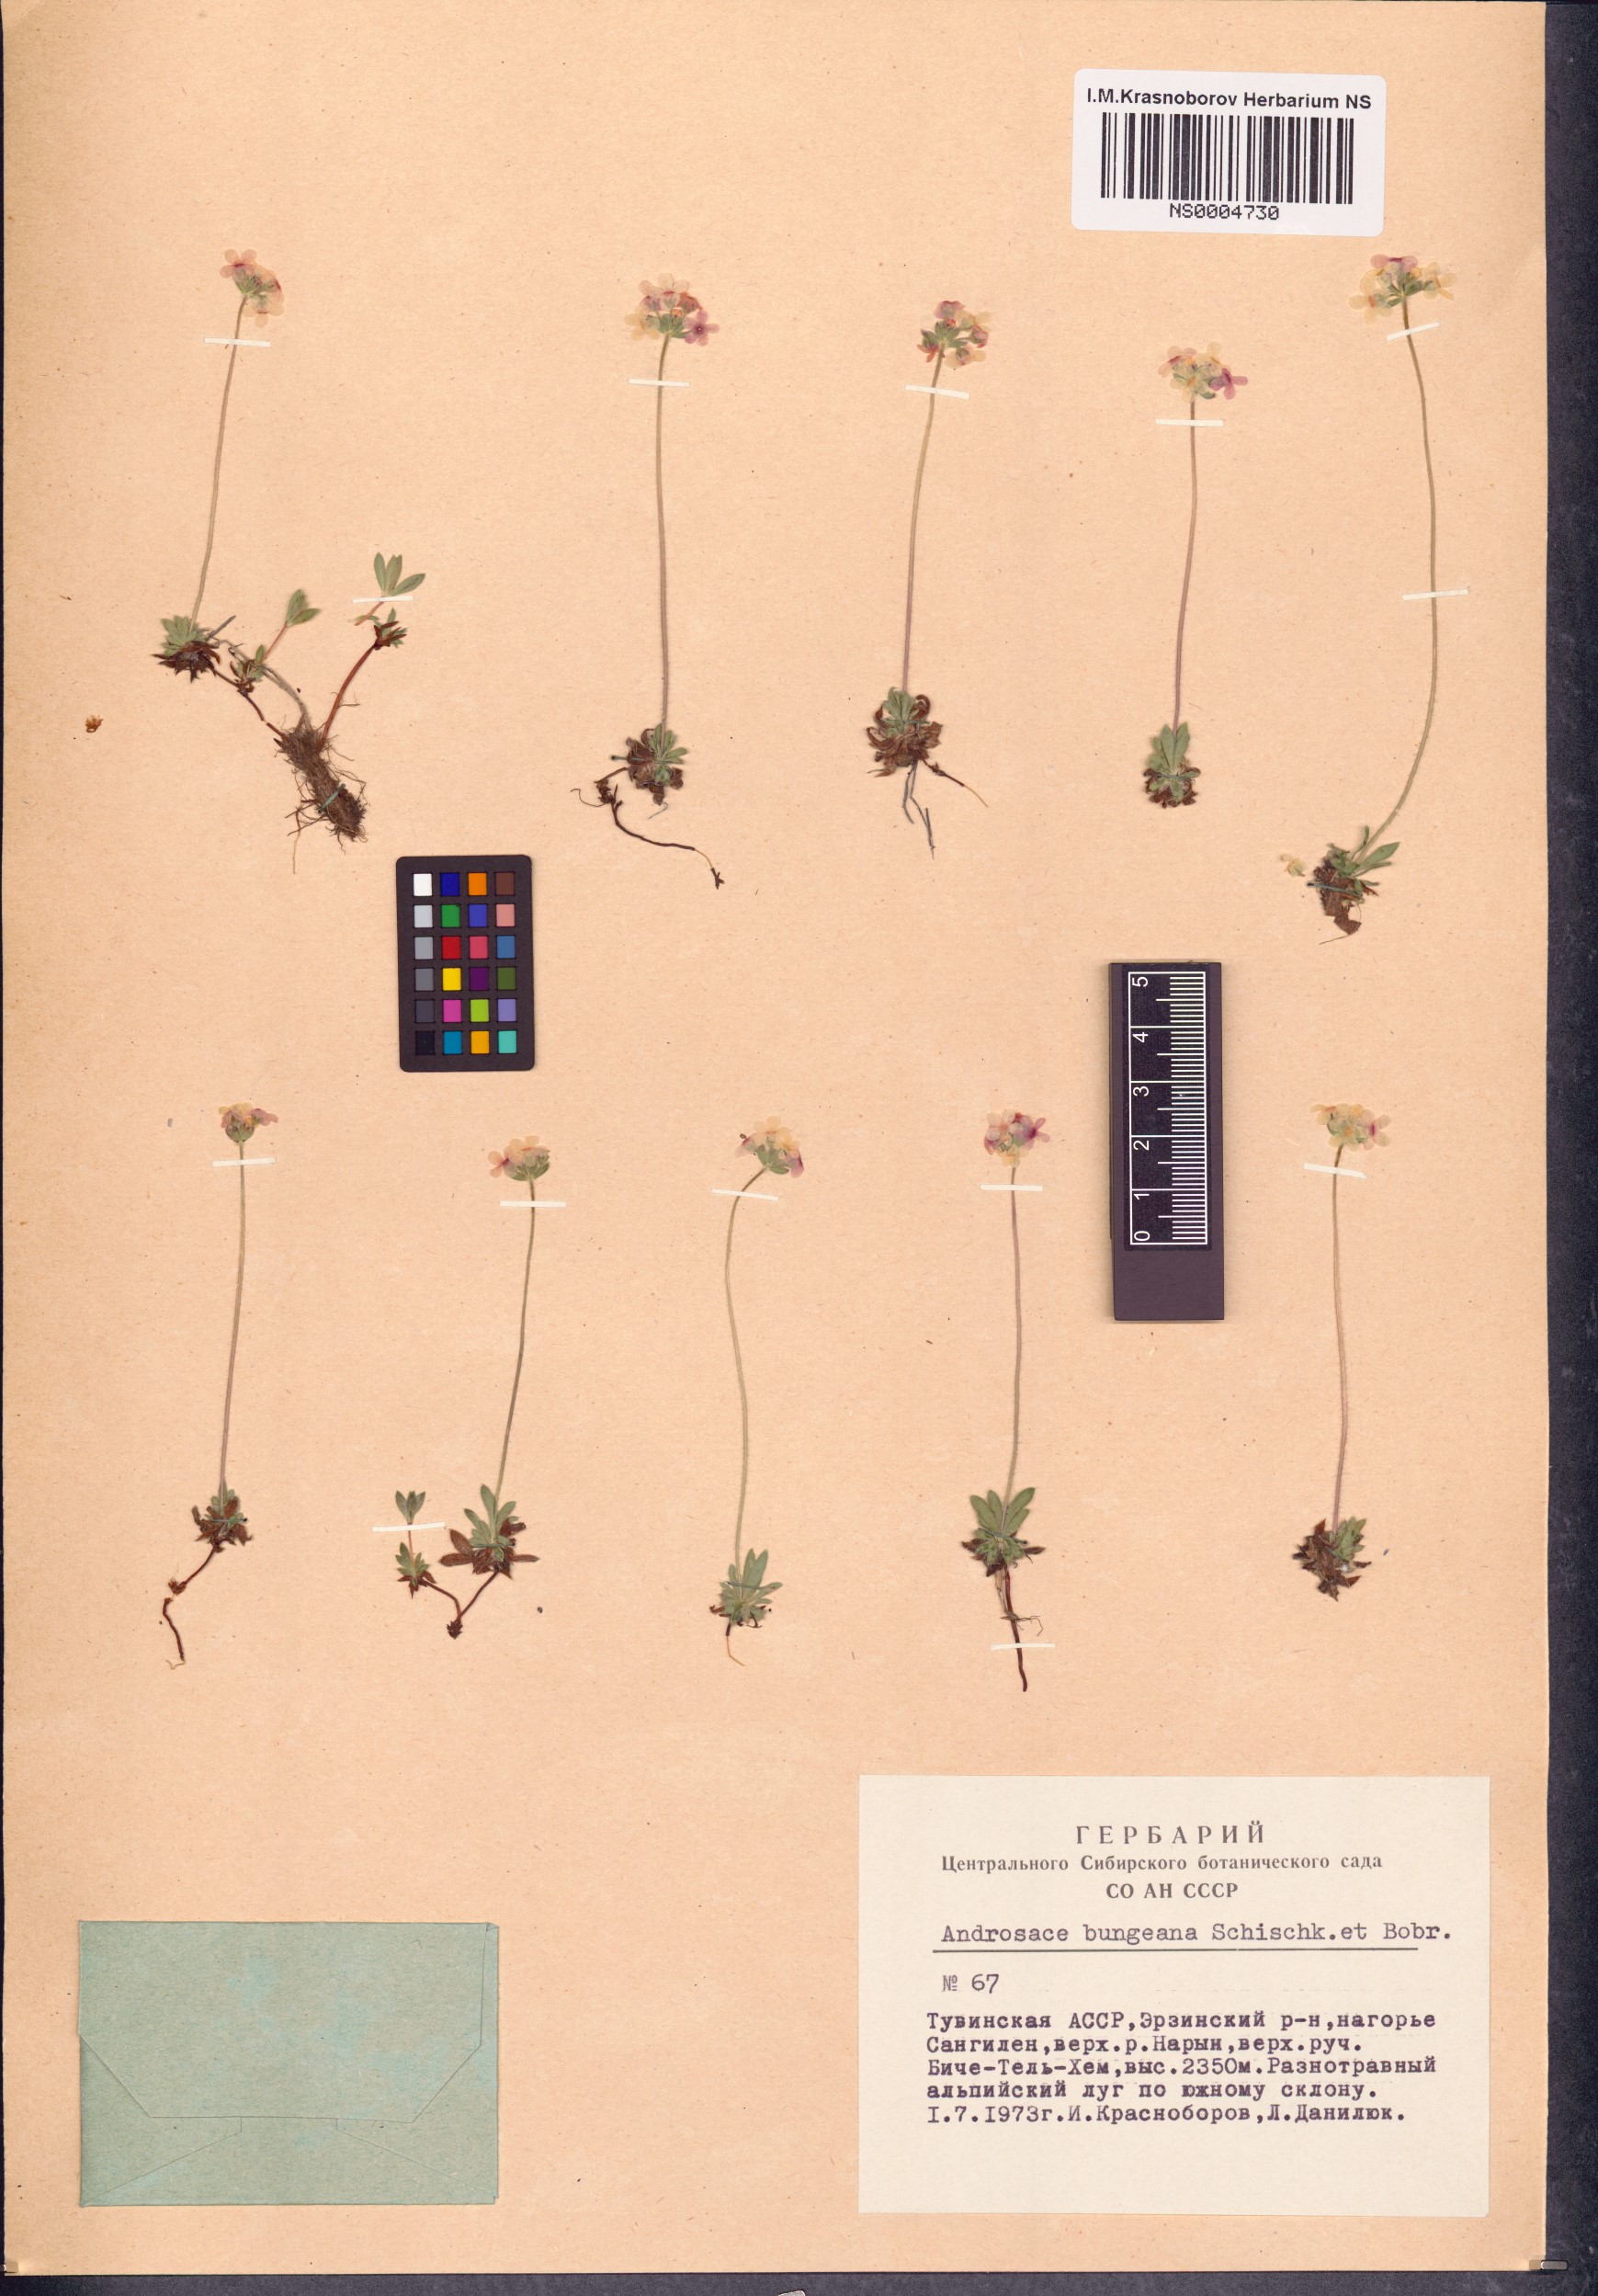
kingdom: Plantae
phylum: Tracheophyta
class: Magnoliopsida
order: Ericales
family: Primulaceae
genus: Androsace
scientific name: Androsace bungeana
